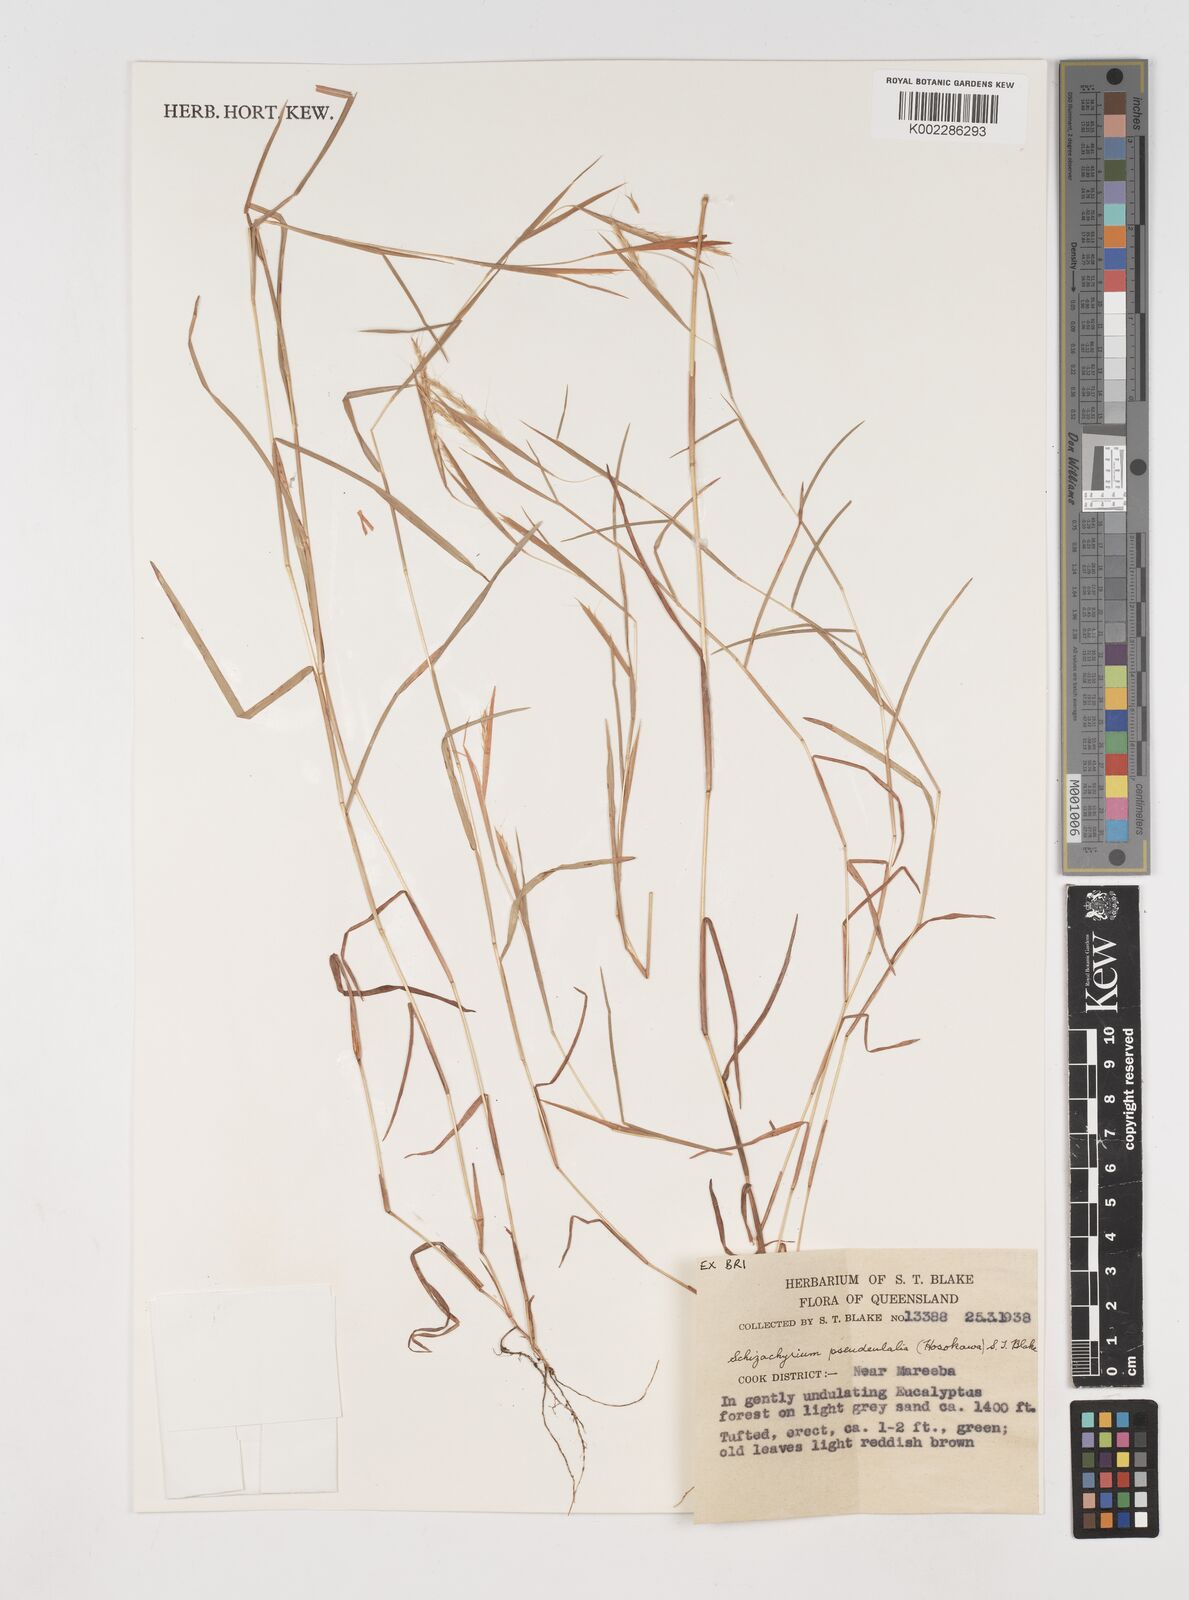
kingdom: Plantae
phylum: Tracheophyta
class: Liliopsida
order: Poales
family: Poaceae
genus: Schizachyrium
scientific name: Schizachyrium pseudeulalia
